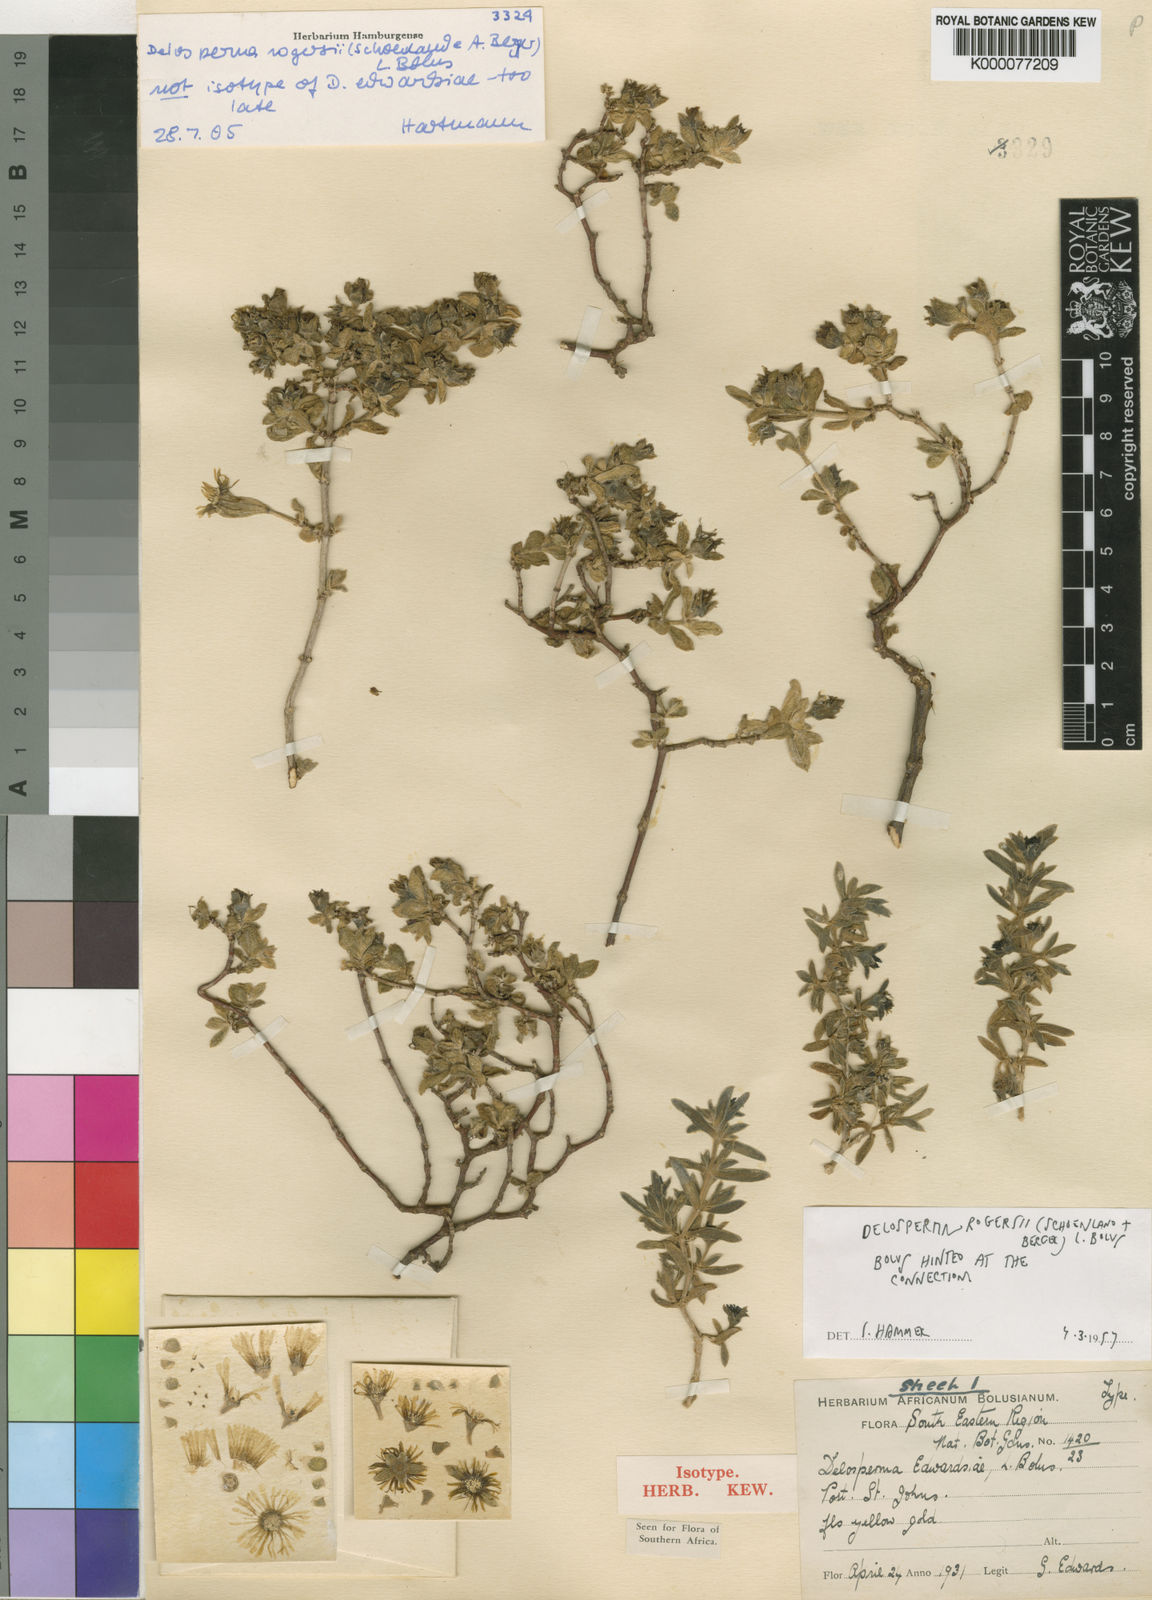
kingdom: Plantae
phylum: Tracheophyta
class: Magnoliopsida
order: Caryophyllales
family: Aizoaceae
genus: Delosperma
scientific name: Delosperma rogersii
